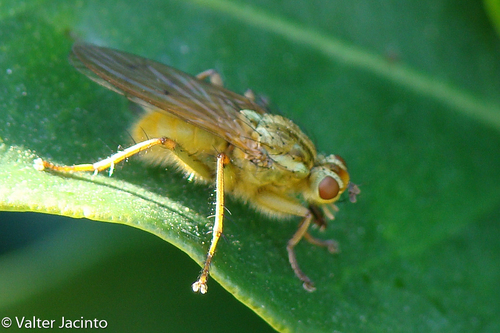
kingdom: Animalia
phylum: Arthropoda
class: Insecta
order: Diptera
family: Scathophagidae
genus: Scathophaga
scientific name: Scathophaga stercoraria
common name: Yellow dung fly
